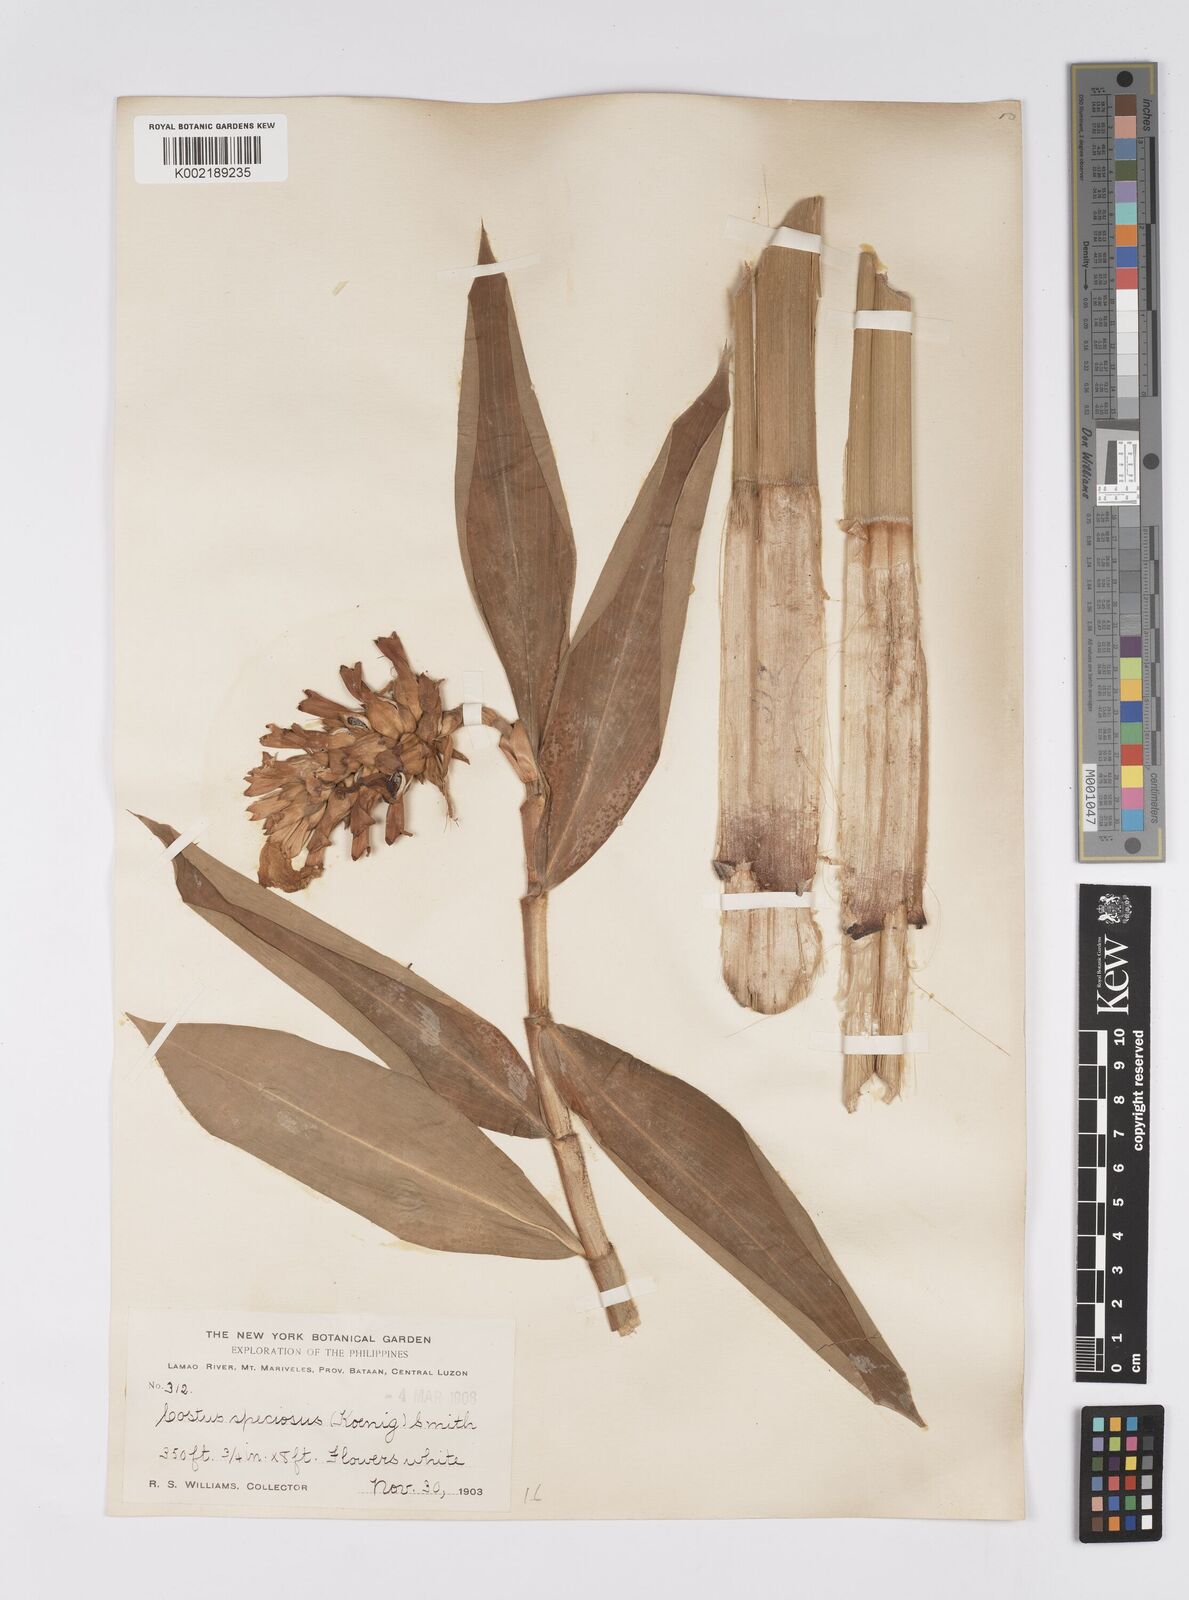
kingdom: Plantae
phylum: Tracheophyta
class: Liliopsida
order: Zingiberales
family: Costaceae
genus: Hellenia
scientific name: Hellenia speciosa
